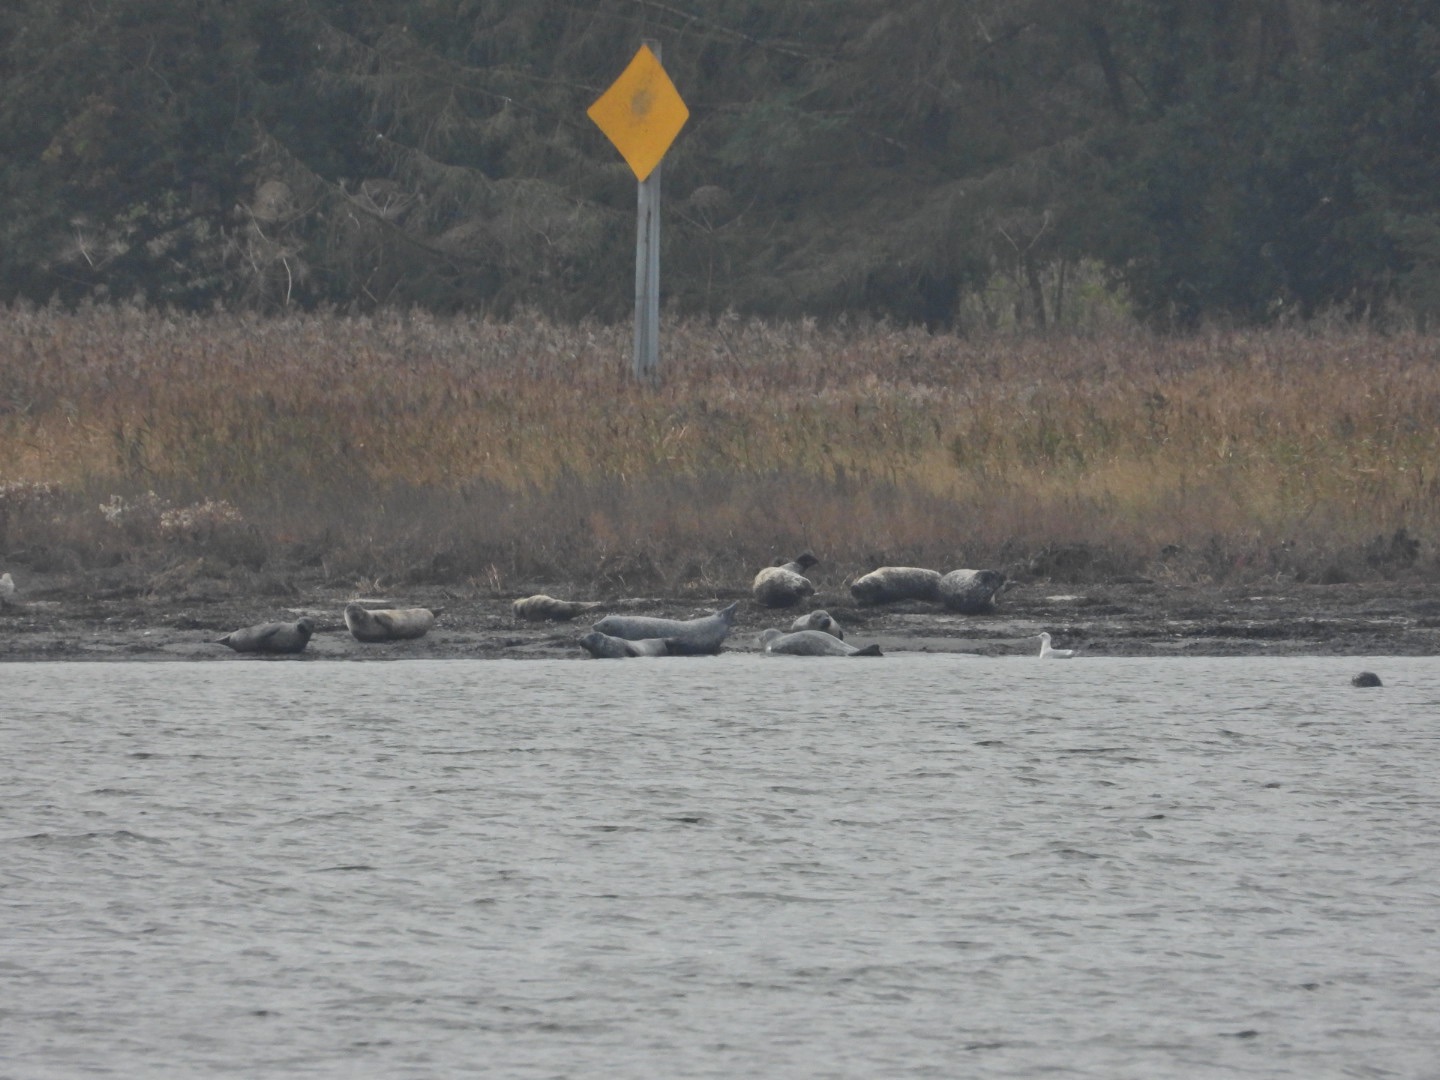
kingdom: Animalia
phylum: Chordata
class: Mammalia
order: Carnivora
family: Phocidae
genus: Phoca
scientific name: Phoca vitulina
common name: Spættet sæl
